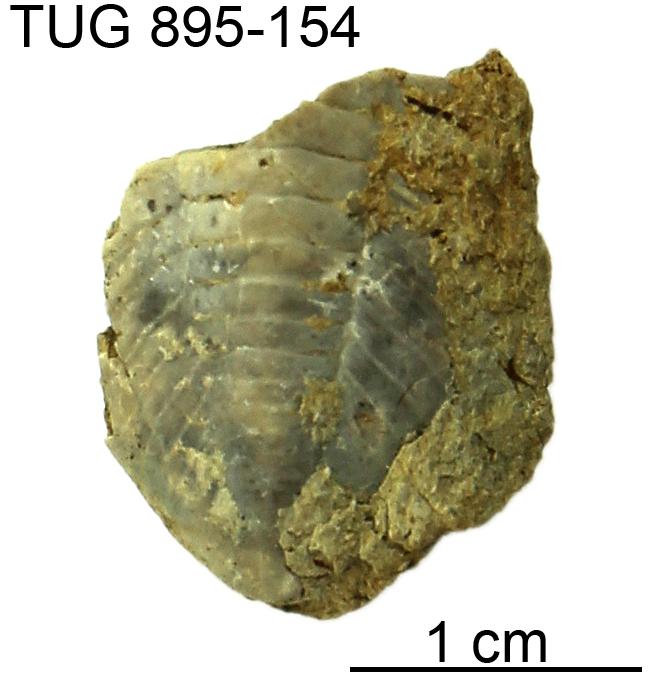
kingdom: Animalia
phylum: Arthropoda
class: Trilobita
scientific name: Trilobita
